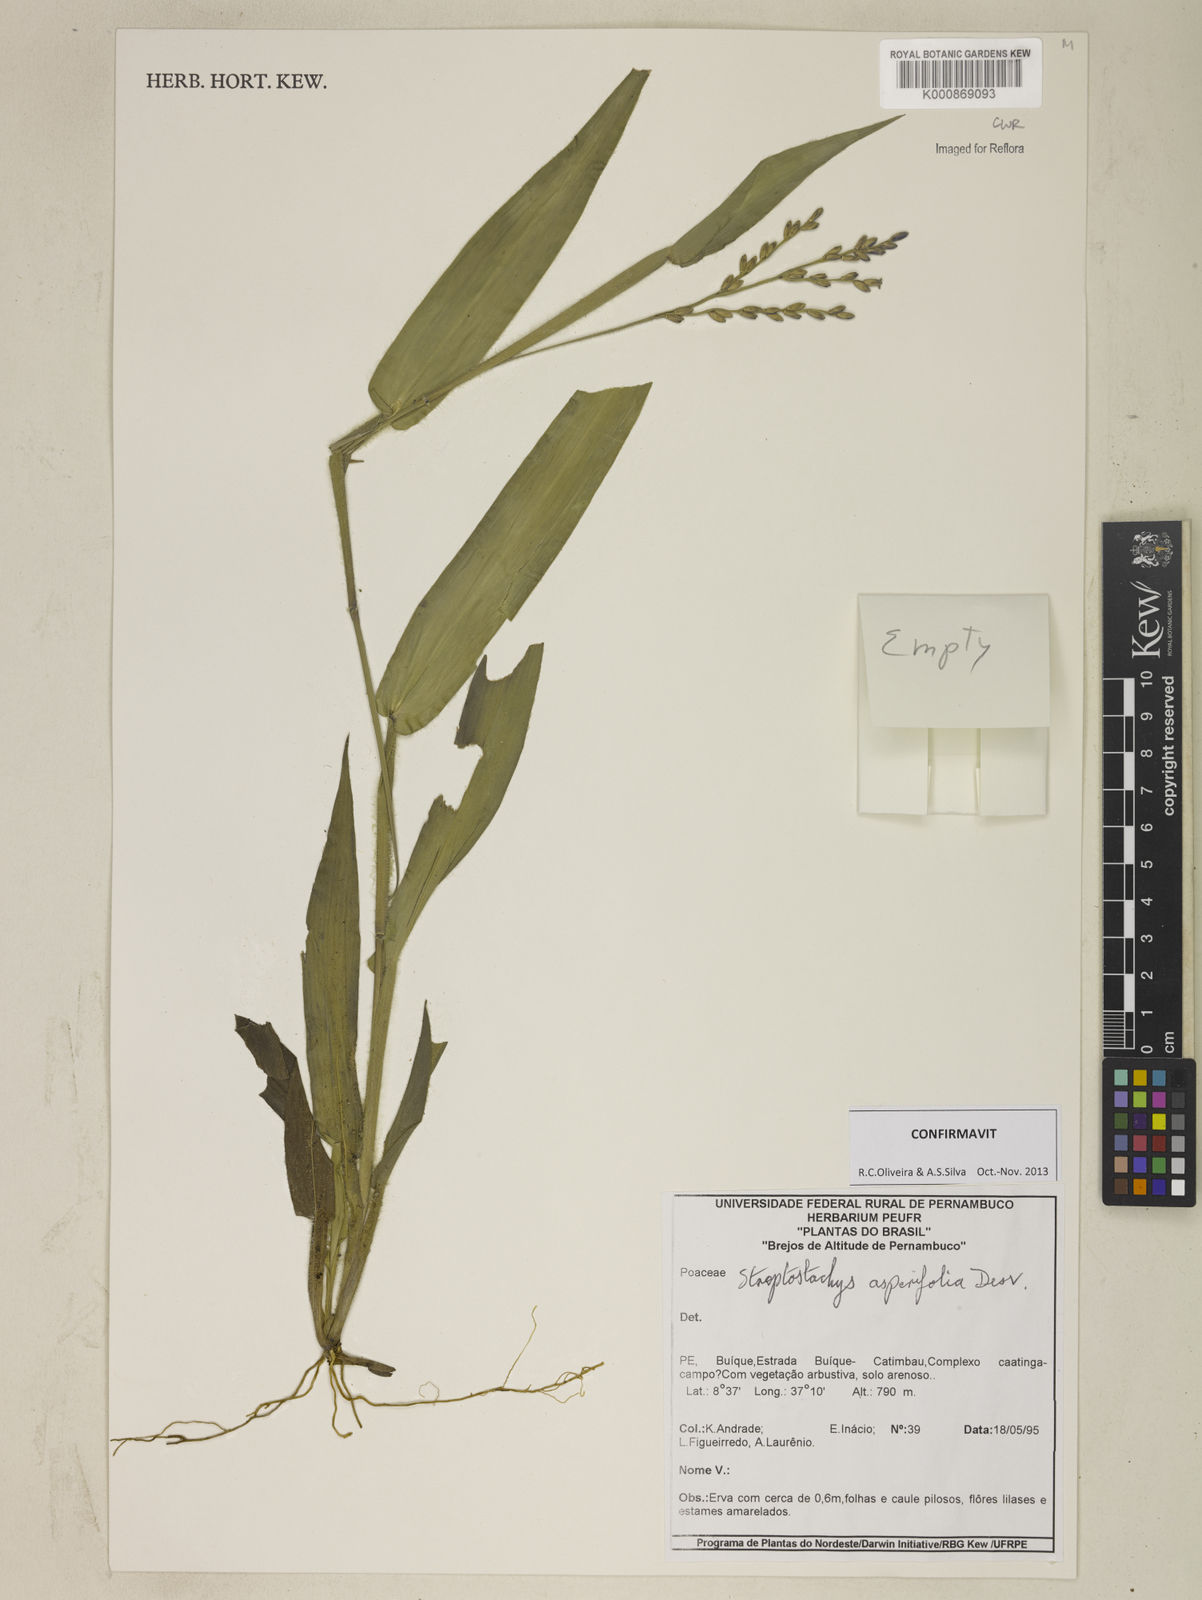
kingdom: Plantae
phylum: Tracheophyta
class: Liliopsida
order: Poales
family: Poaceae
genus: Streptostachys
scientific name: Streptostachys asperifolia
